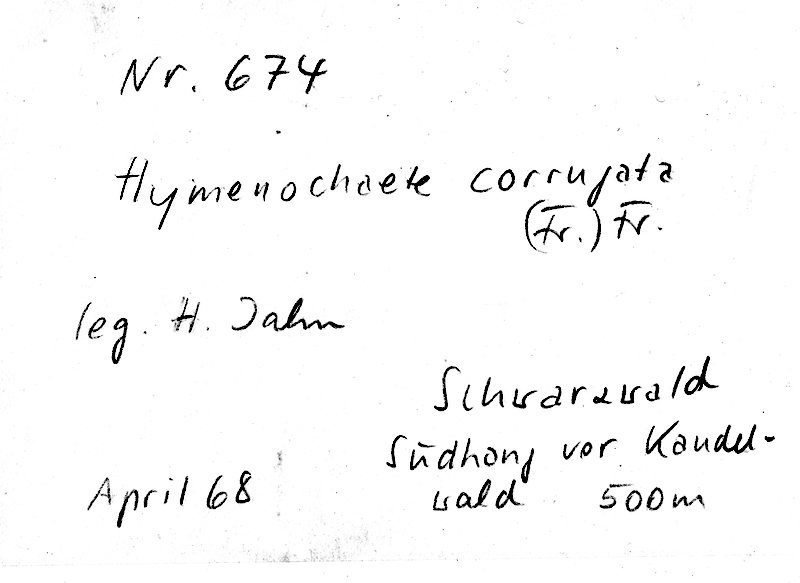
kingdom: Fungi
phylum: Basidiomycota
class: Agaricomycetes
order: Hymenochaetales
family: Hymenochaetaceae
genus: Hydnoporia
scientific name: Hydnoporia corrugata
